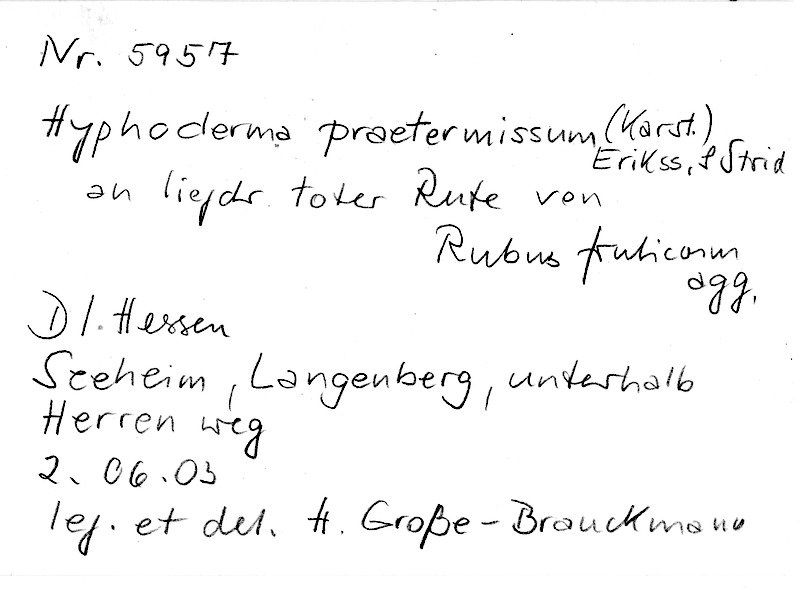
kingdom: Fungi
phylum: Basidiomycota
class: Agaricomycetes
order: Hymenochaetales
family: Rickenellaceae
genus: Peniophorella
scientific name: Peniophorella praetermissa
